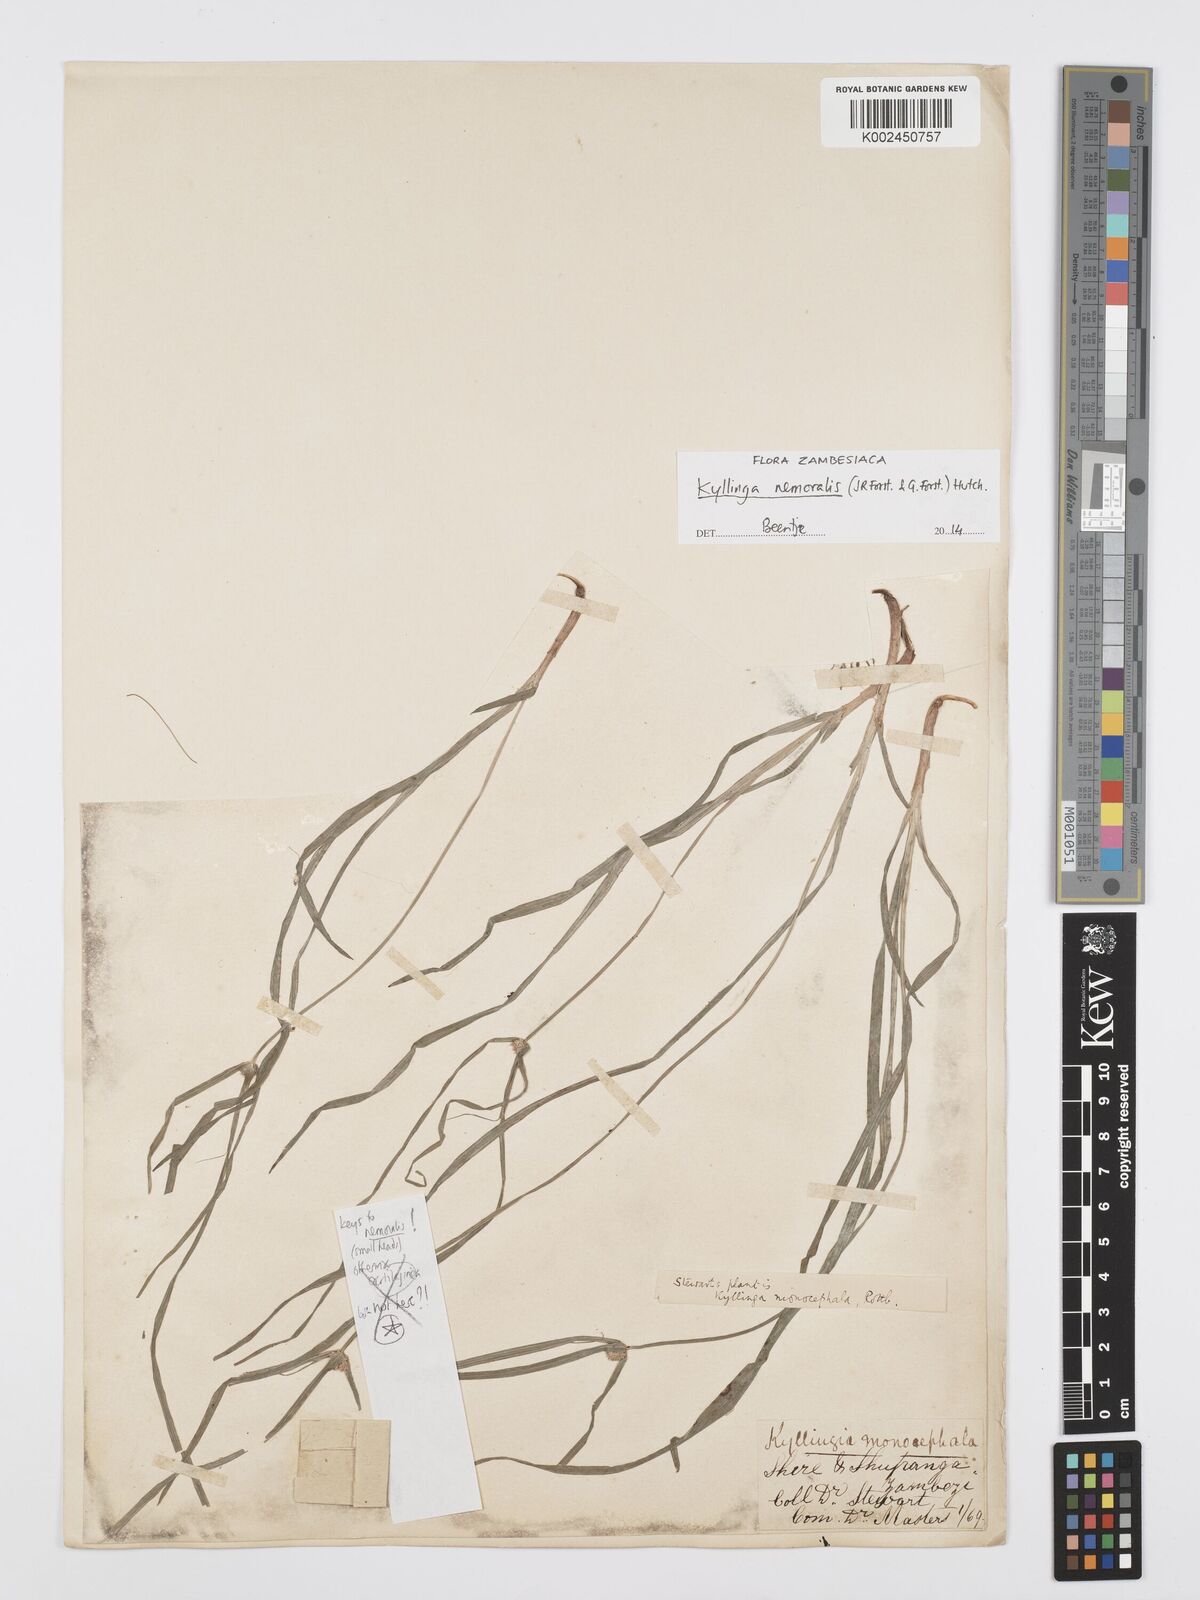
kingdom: Plantae
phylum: Tracheophyta
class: Liliopsida
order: Poales
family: Cyperaceae
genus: Cyperus
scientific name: Cyperus nemoralis
